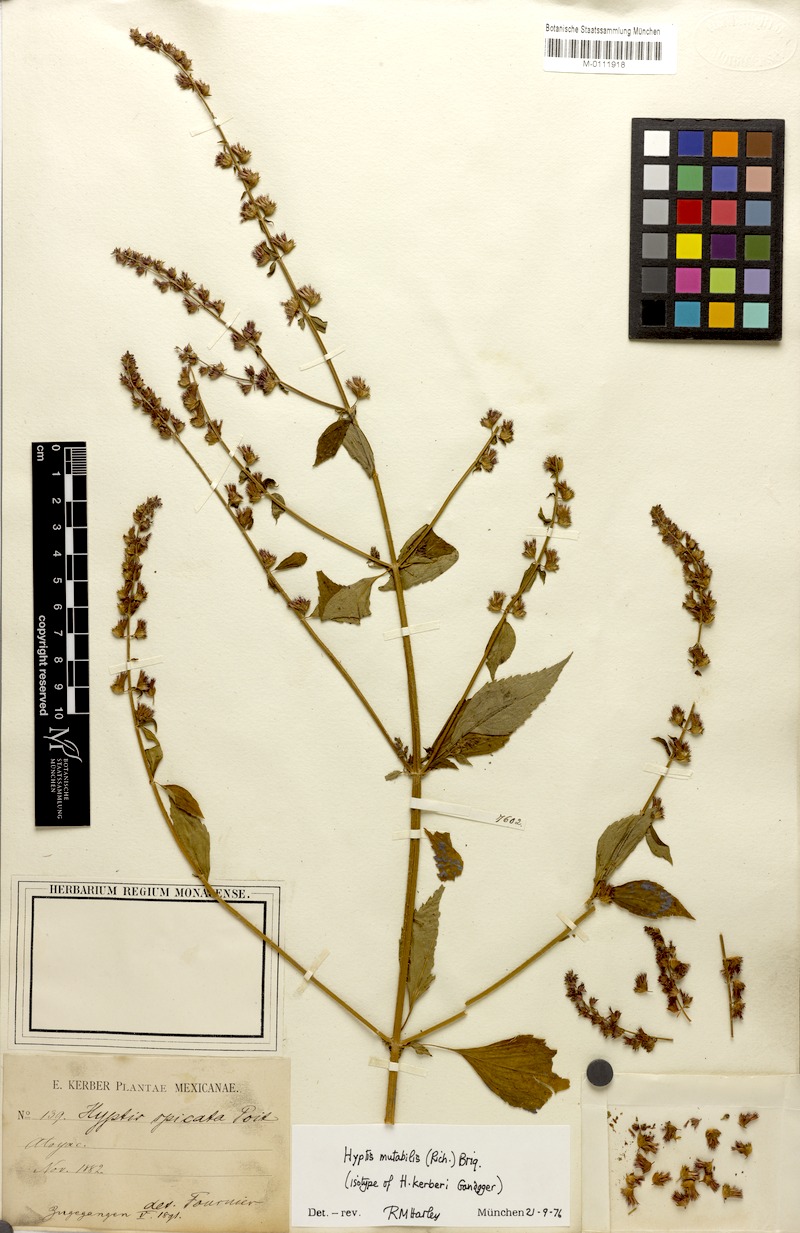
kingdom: Plantae
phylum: Tracheophyta
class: Magnoliopsida
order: Lamiales
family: Lamiaceae
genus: Cantinoa
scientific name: Cantinoa mutabilis
